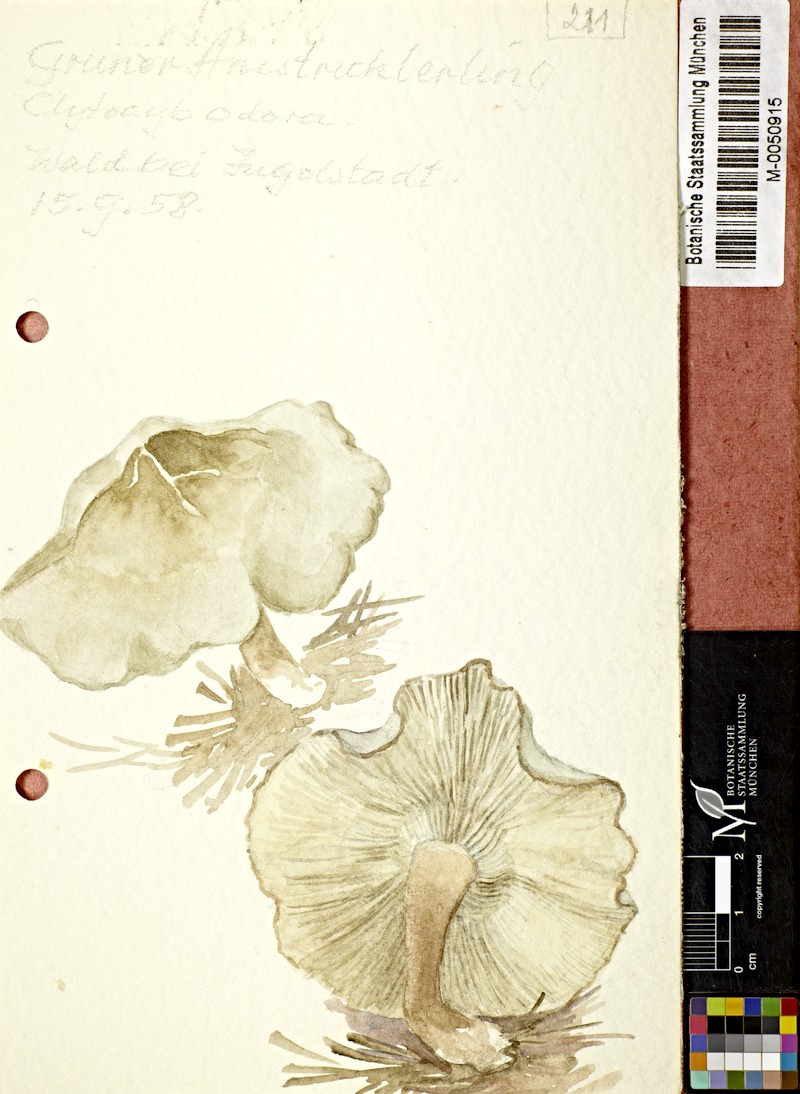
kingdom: Fungi
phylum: Basidiomycota
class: Agaricomycetes
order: Agaricales
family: Tricholomataceae
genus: Clitocybe
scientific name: Clitocybe odora
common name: Aniseed funnel
